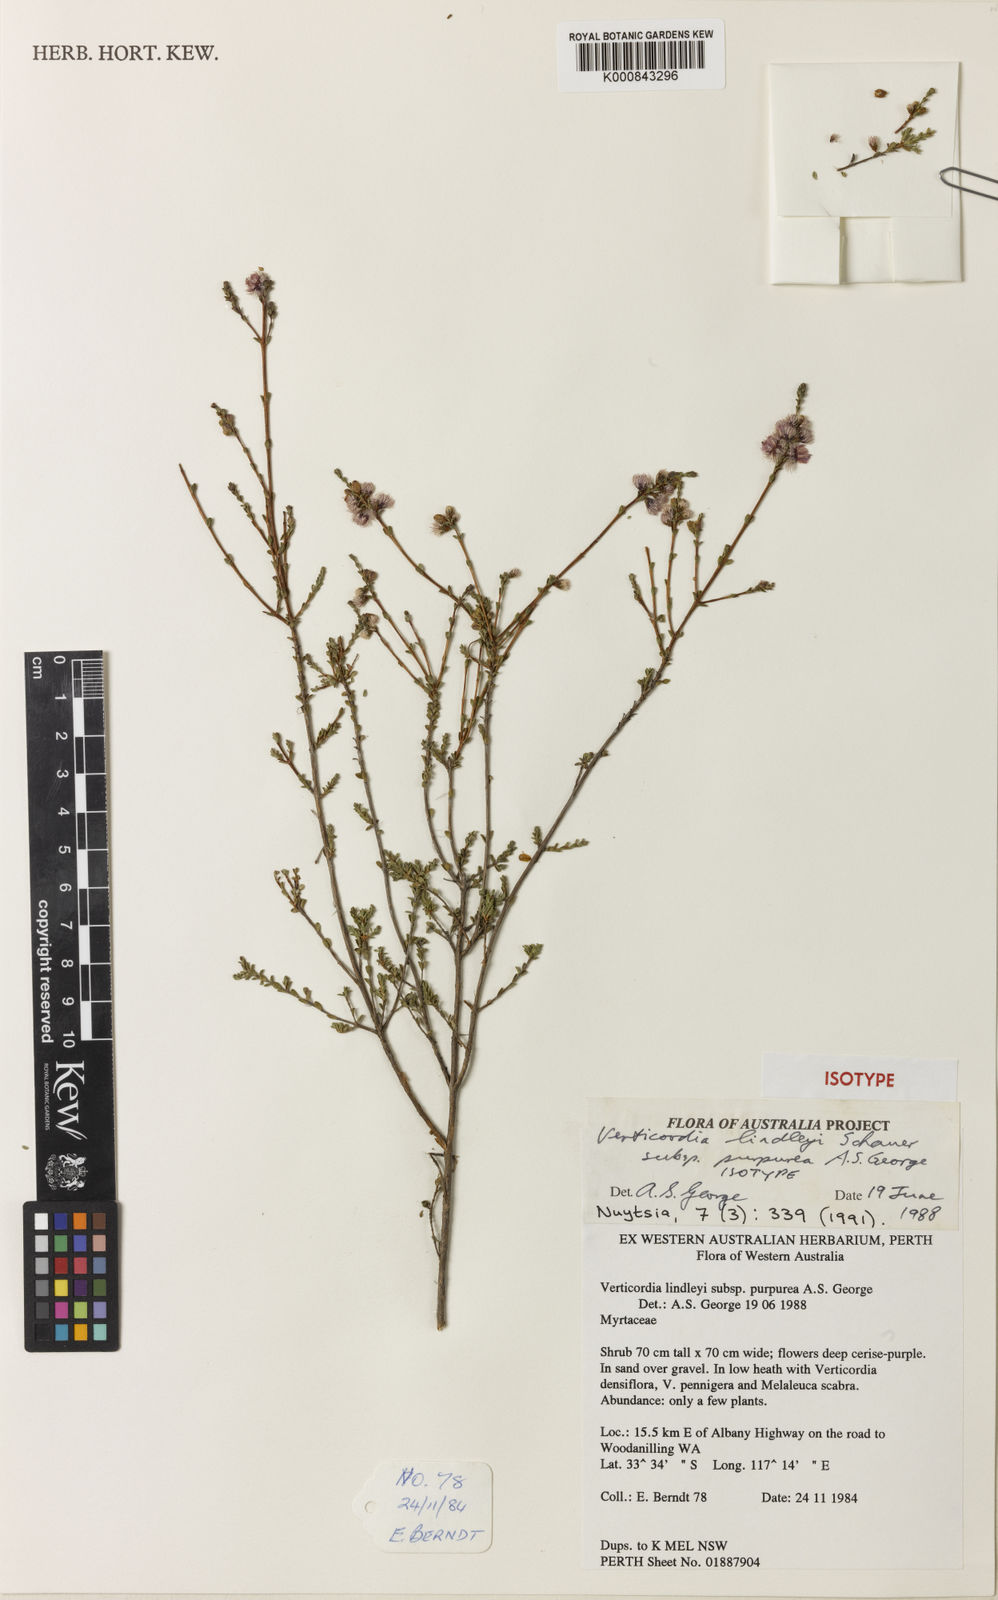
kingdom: Plantae
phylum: Tracheophyta
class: Magnoliopsida
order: Myrtales
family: Myrtaceae
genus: Verticordia
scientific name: Verticordia lindleyi
